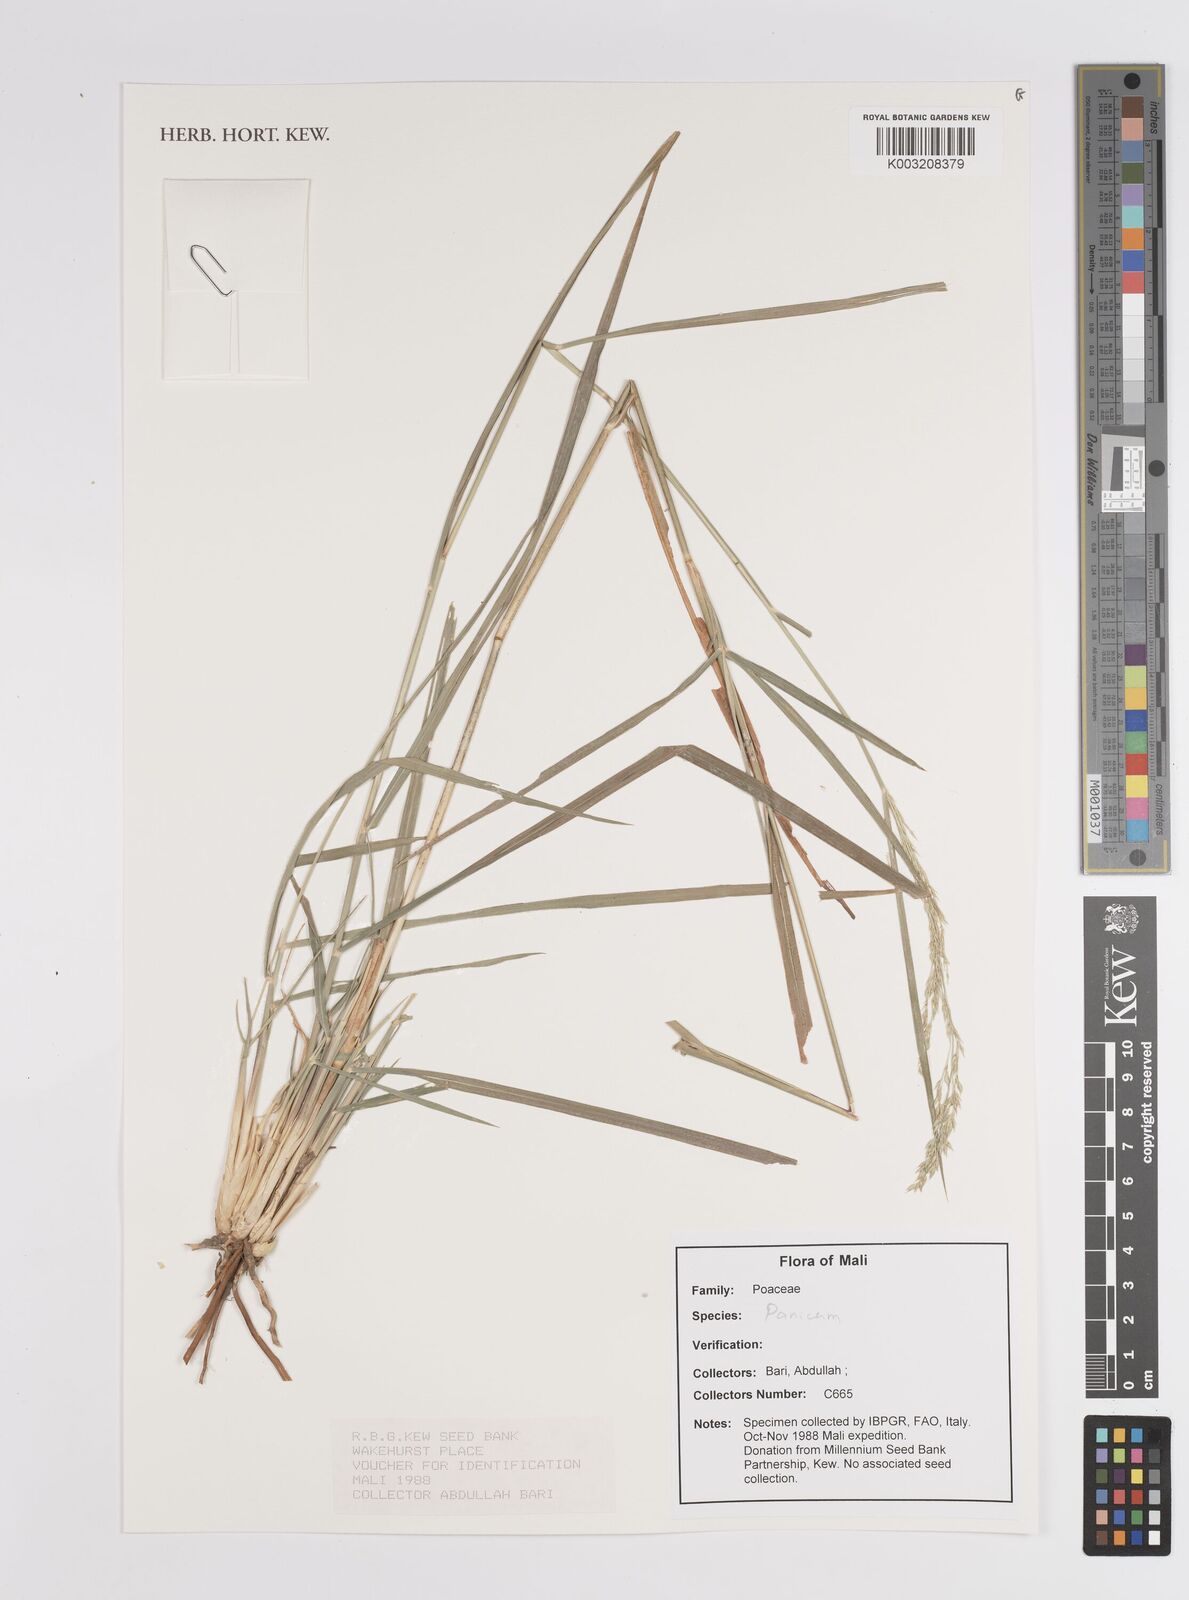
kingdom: Plantae
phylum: Tracheophyta
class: Liliopsida
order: Poales
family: Poaceae
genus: Panicum
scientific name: Panicum
